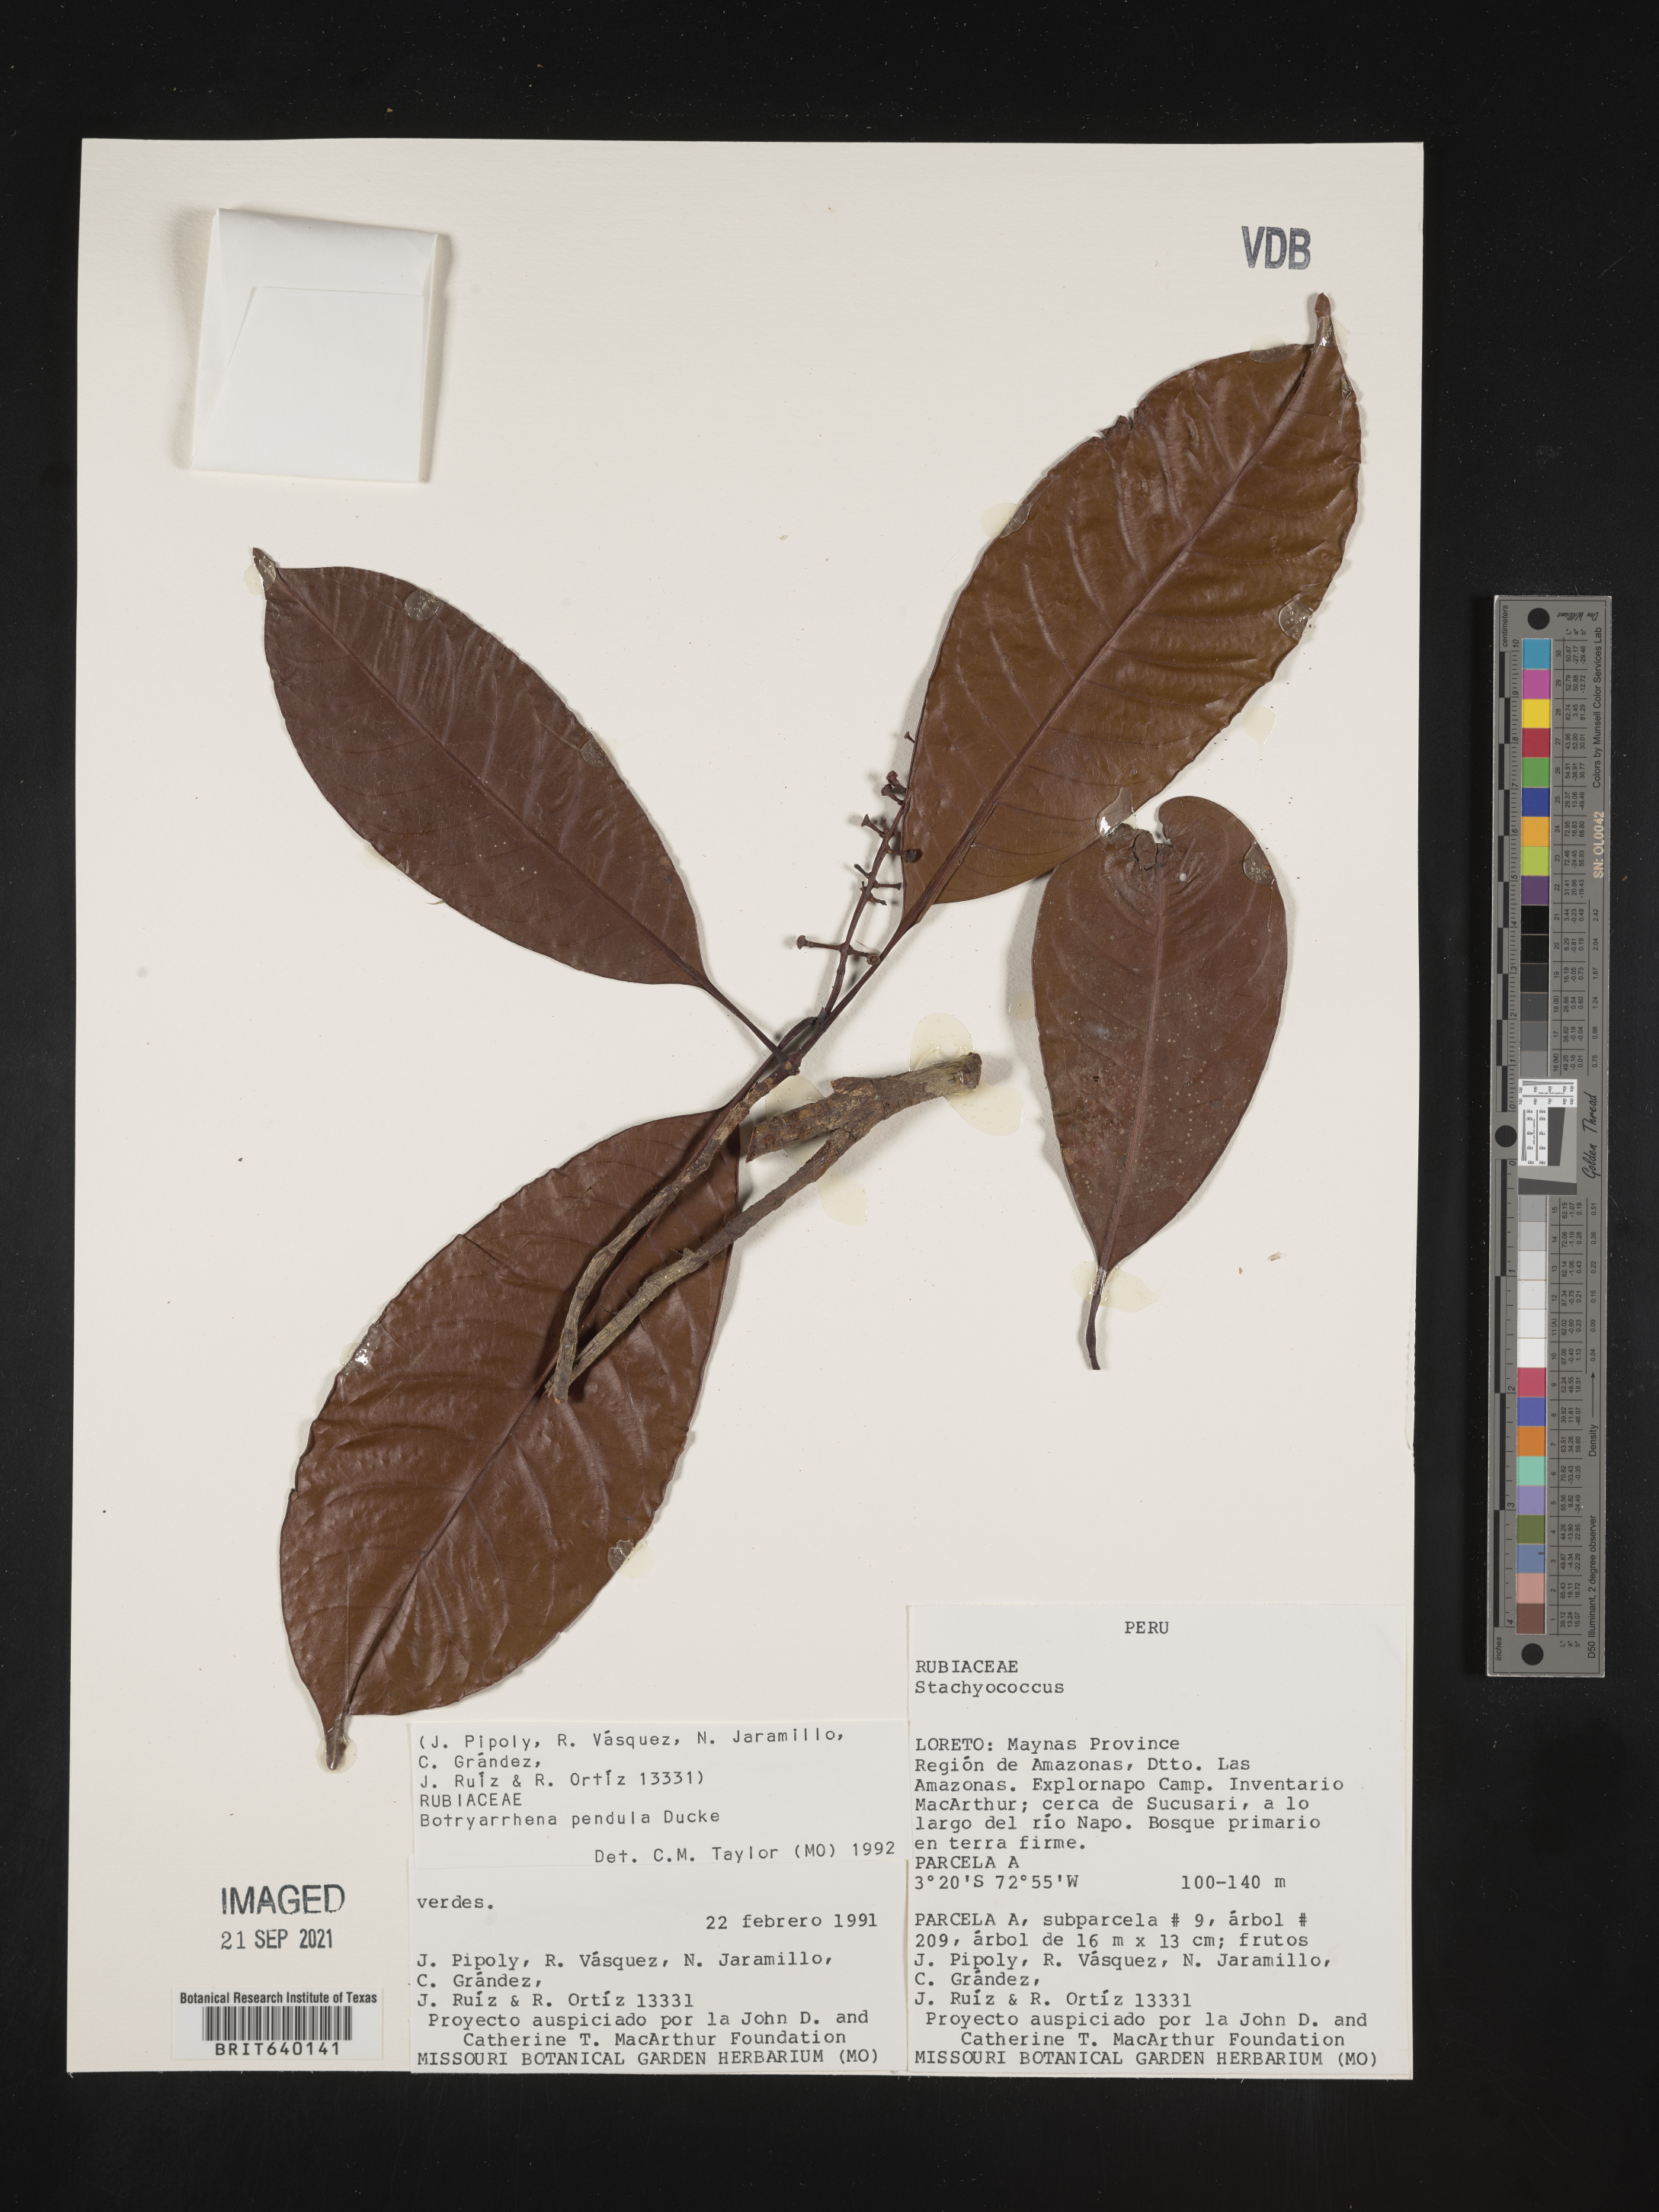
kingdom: Plantae
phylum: Tracheophyta
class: Magnoliopsida
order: Gentianales
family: Rubiaceae
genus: Botryarrhena
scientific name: Botryarrhena
